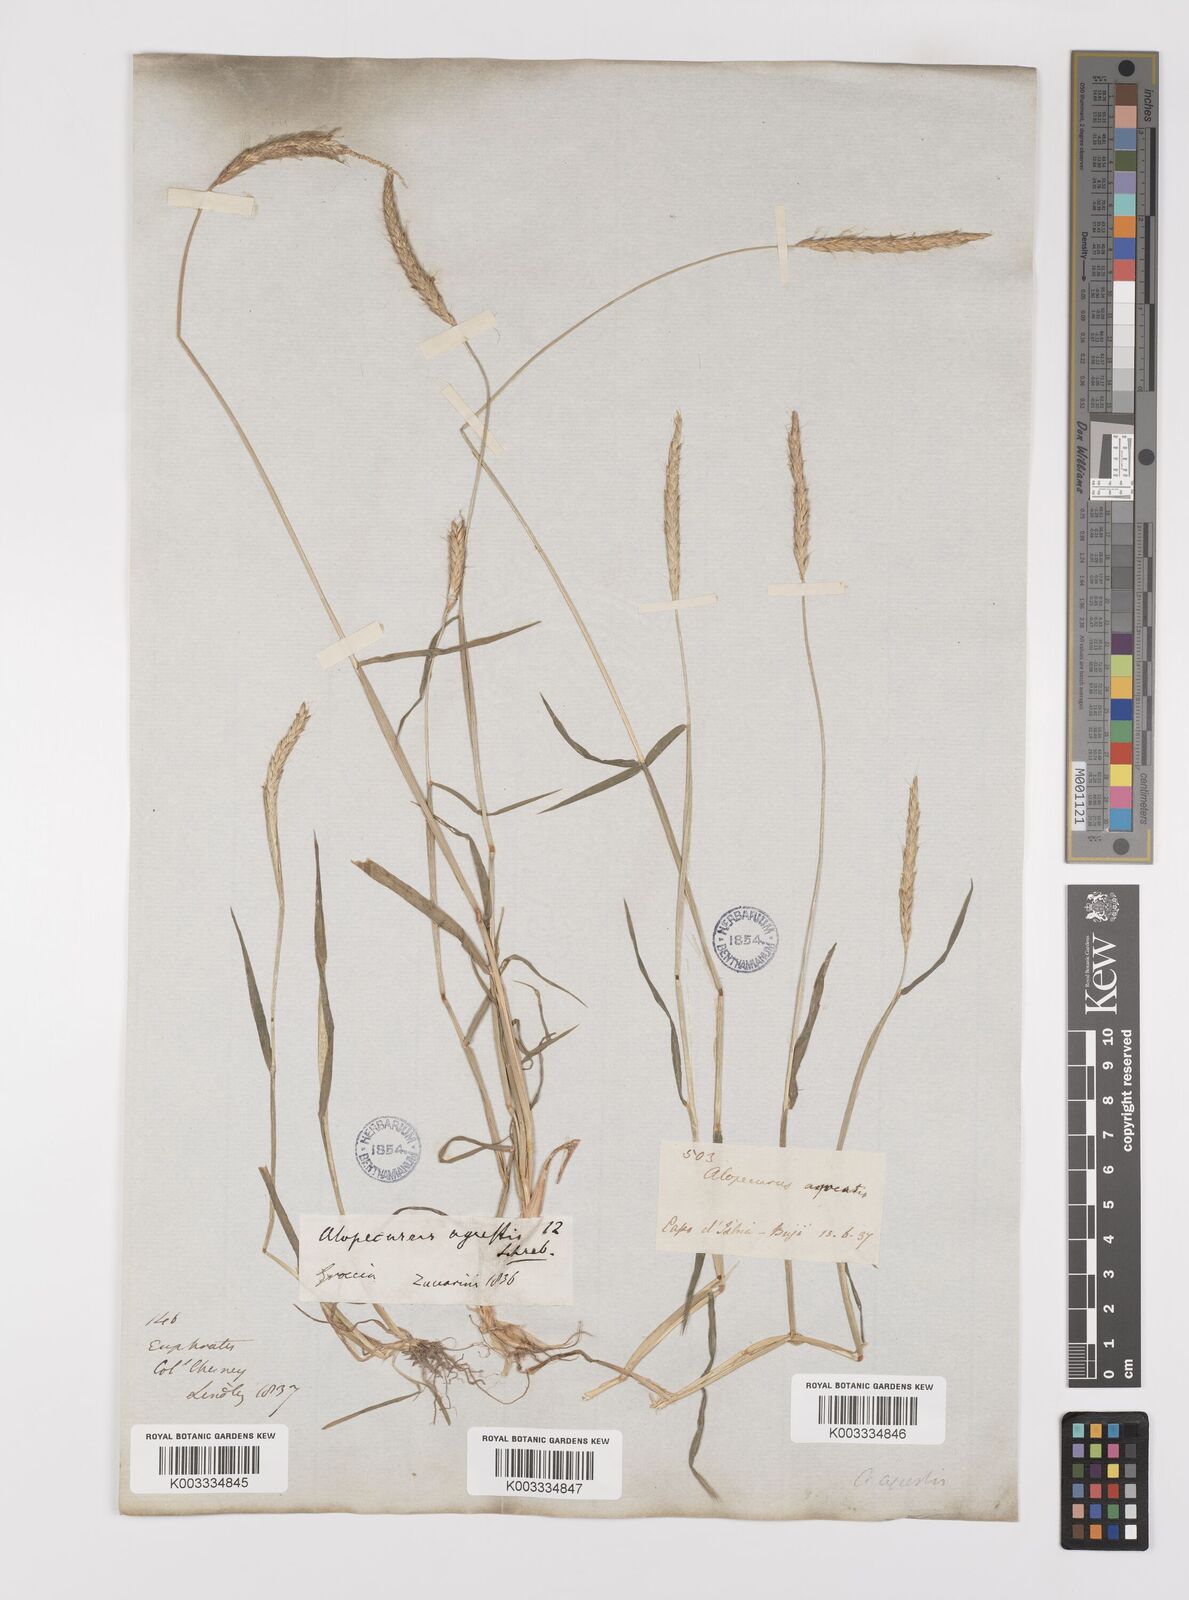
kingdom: Plantae
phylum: Tracheophyta
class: Liliopsida
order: Poales
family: Poaceae
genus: Alopecurus
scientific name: Alopecurus myosuroides
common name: Black-grass
